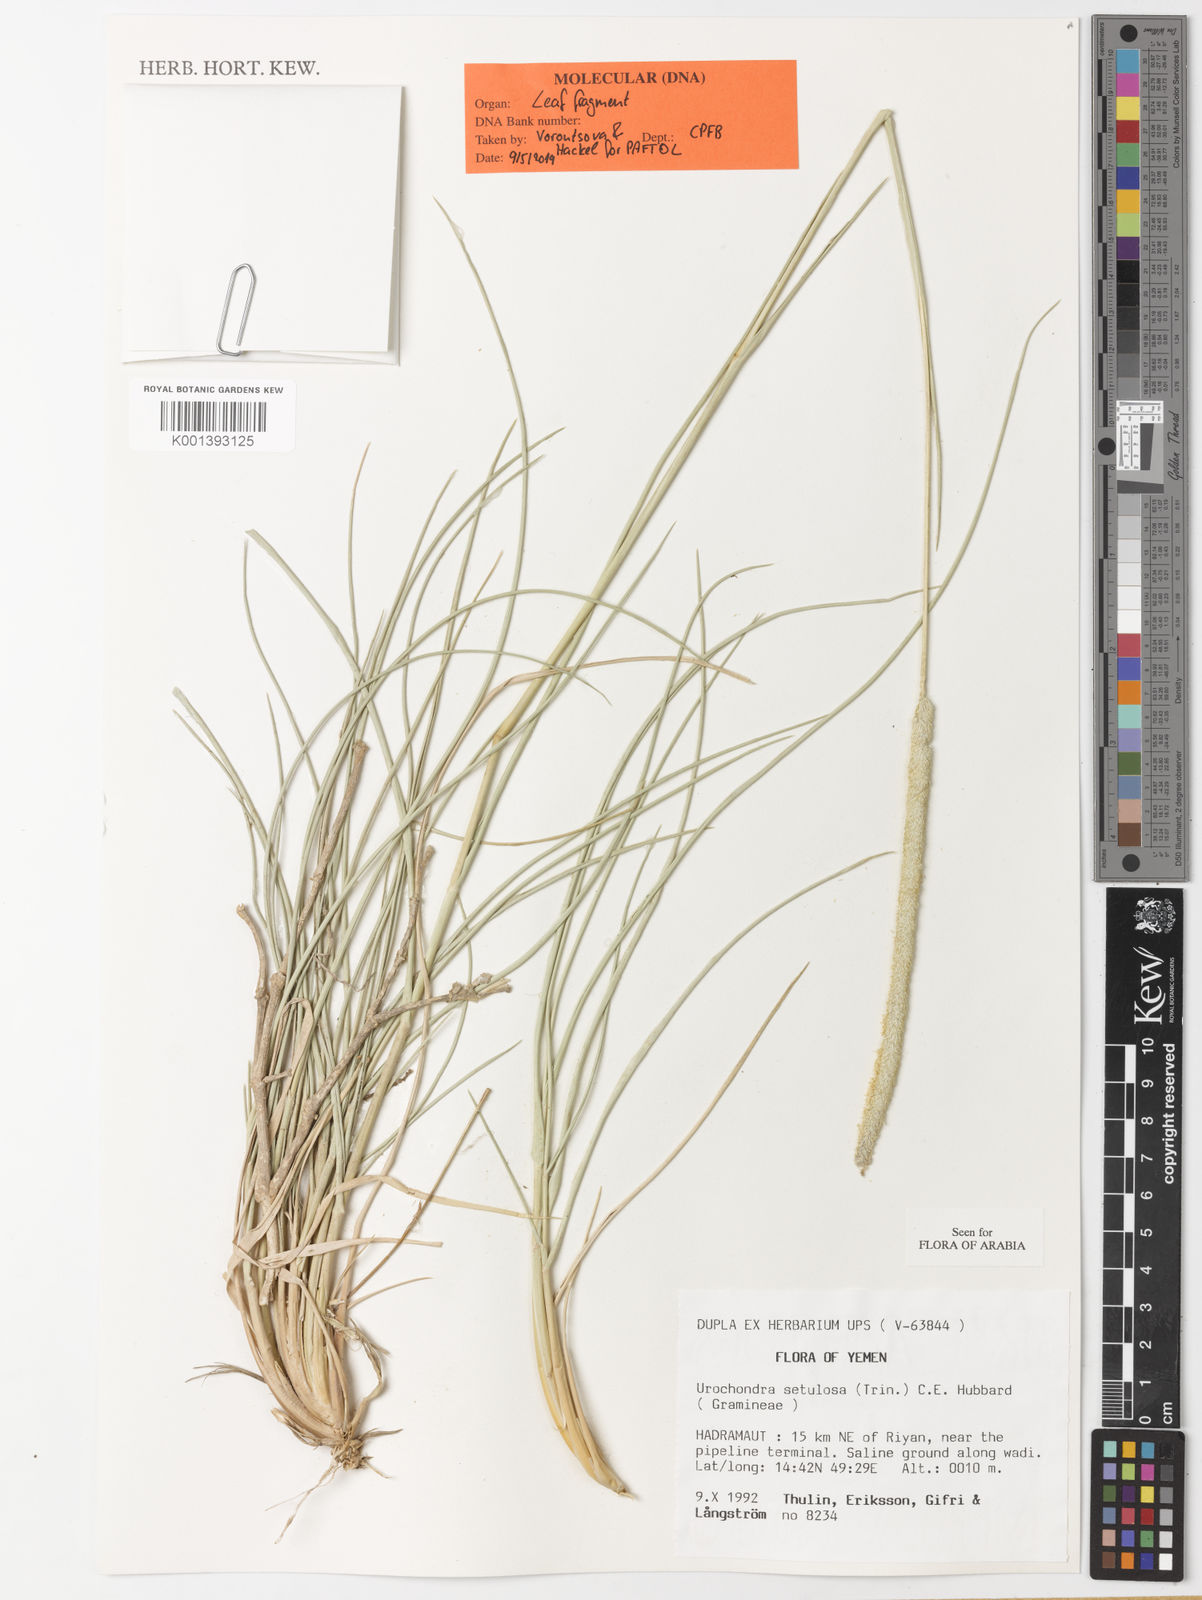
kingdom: Plantae
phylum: Tracheophyta
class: Liliopsida
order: Poales
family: Poaceae
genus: Urochondra
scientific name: Urochondra setulosa
